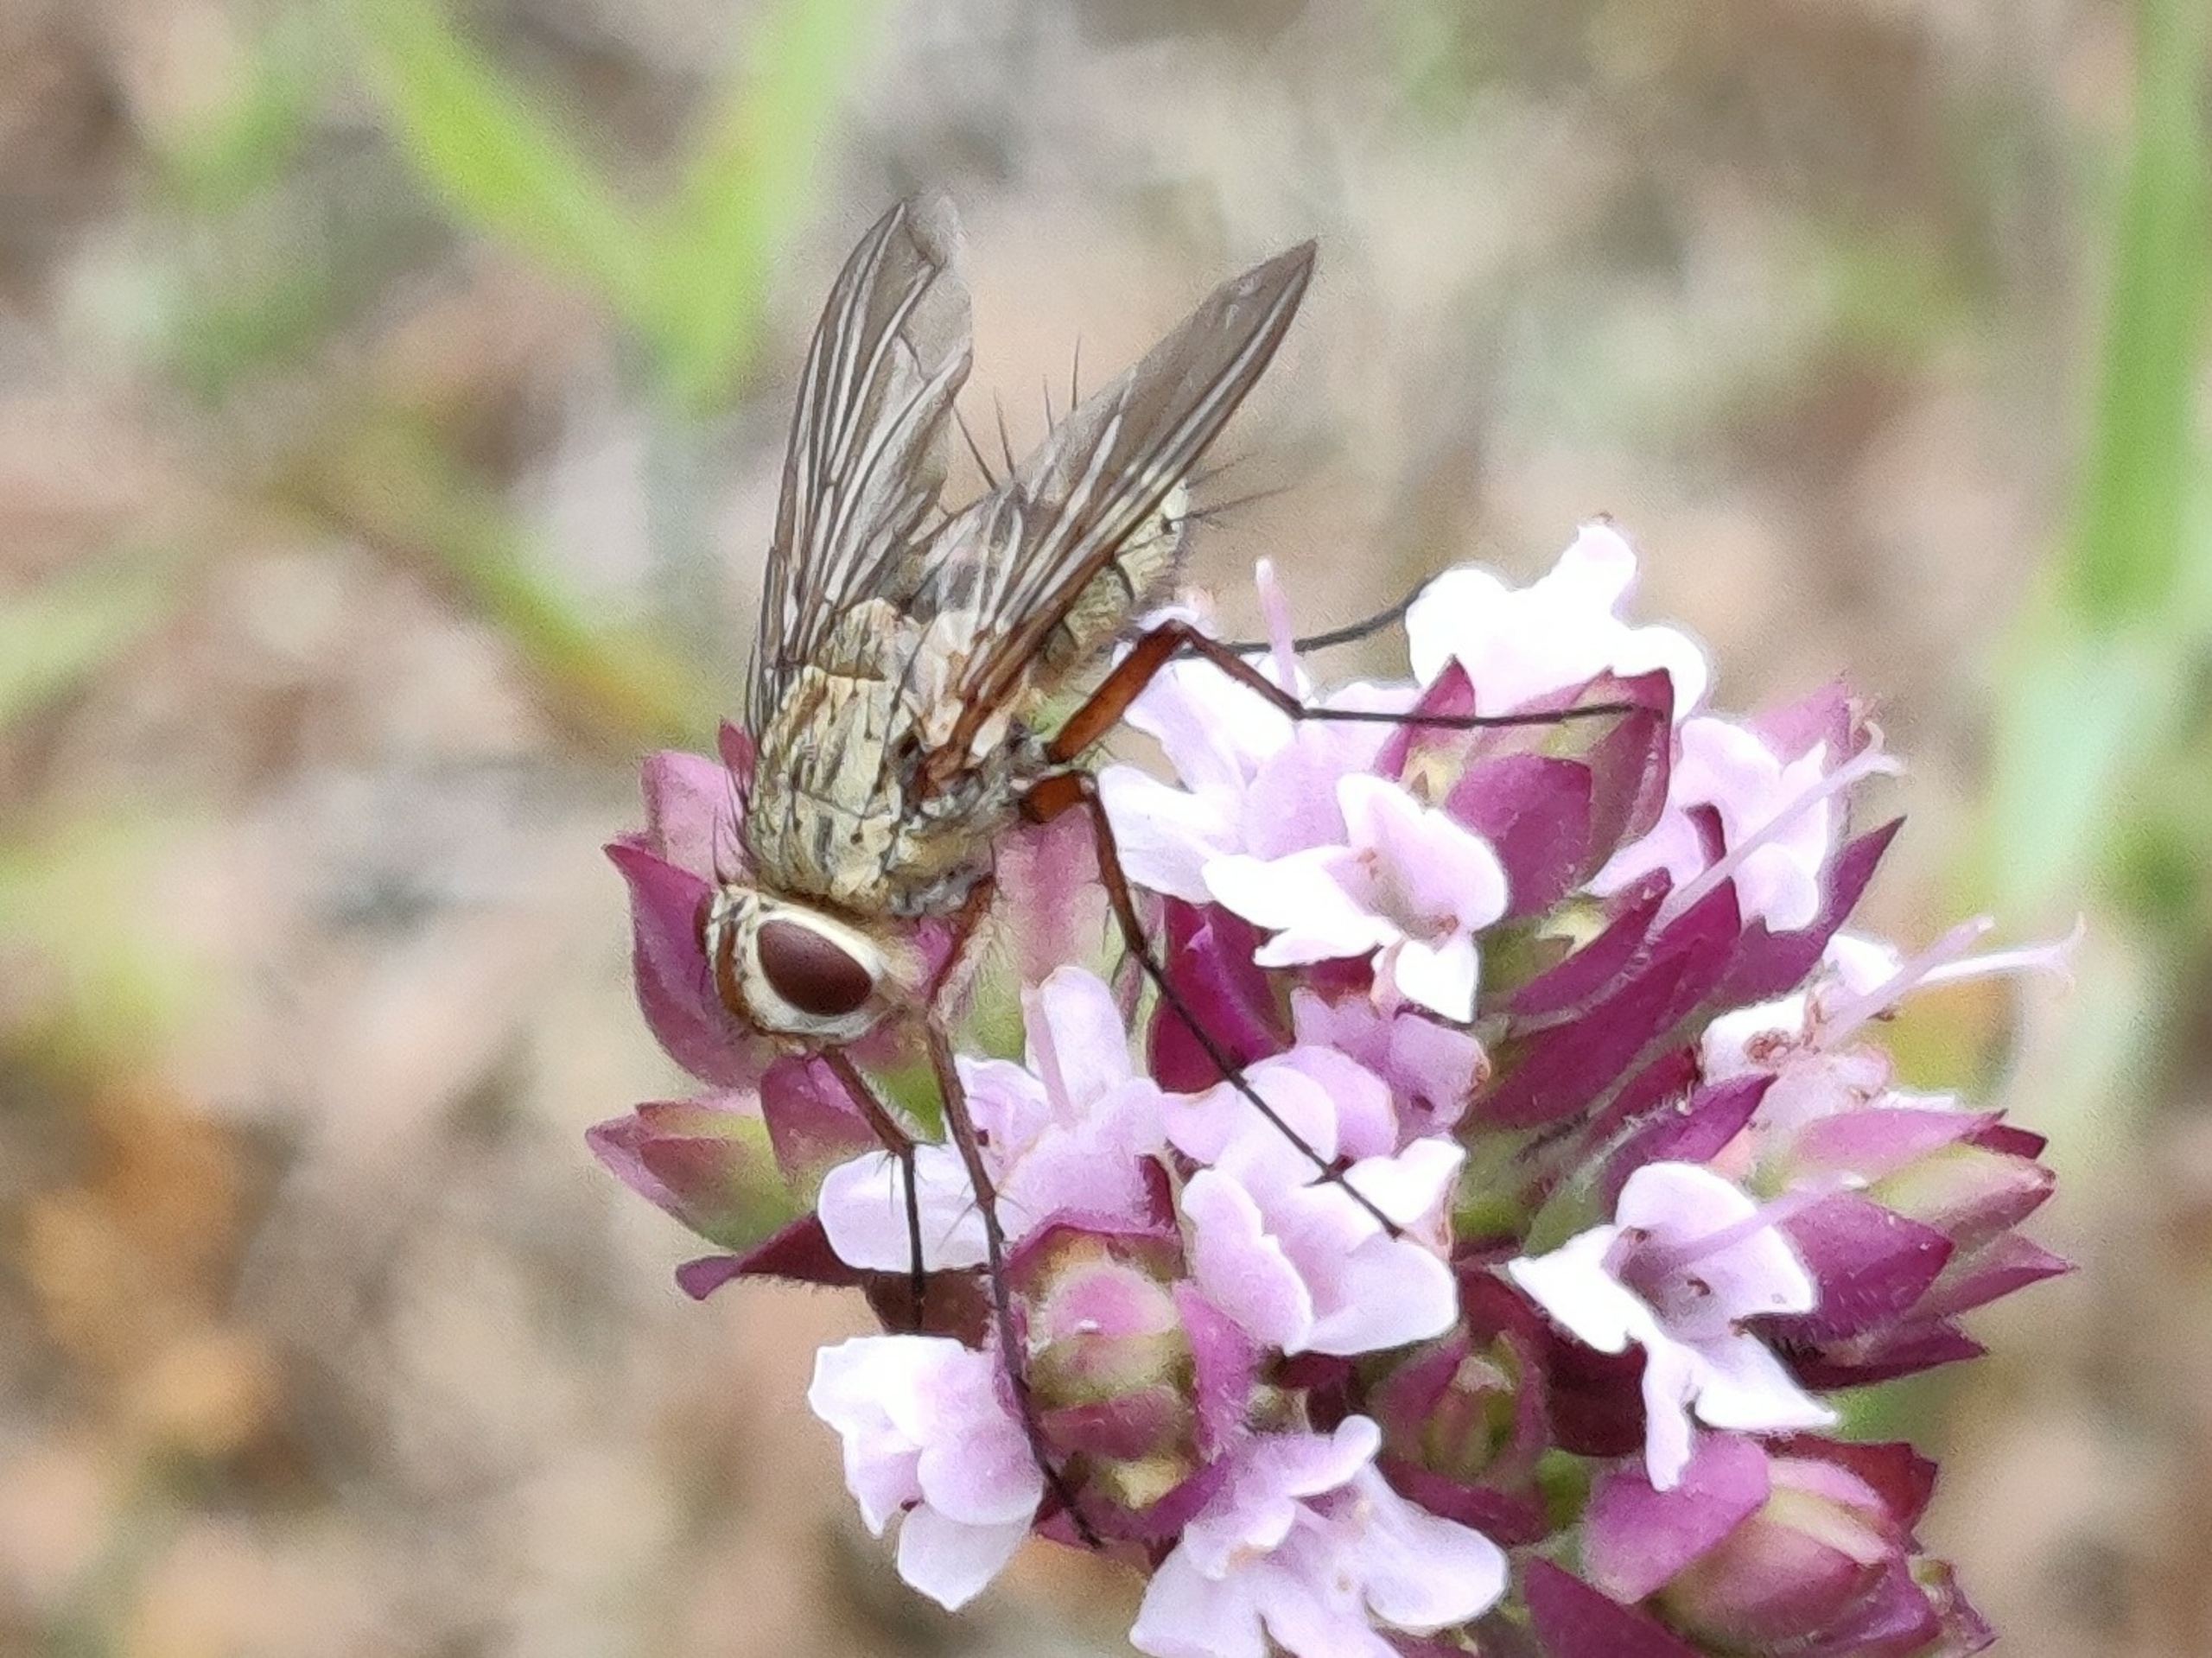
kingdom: Animalia
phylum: Arthropoda
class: Insecta
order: Diptera
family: Tachinidae
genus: Prosena
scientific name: Prosena siberita
